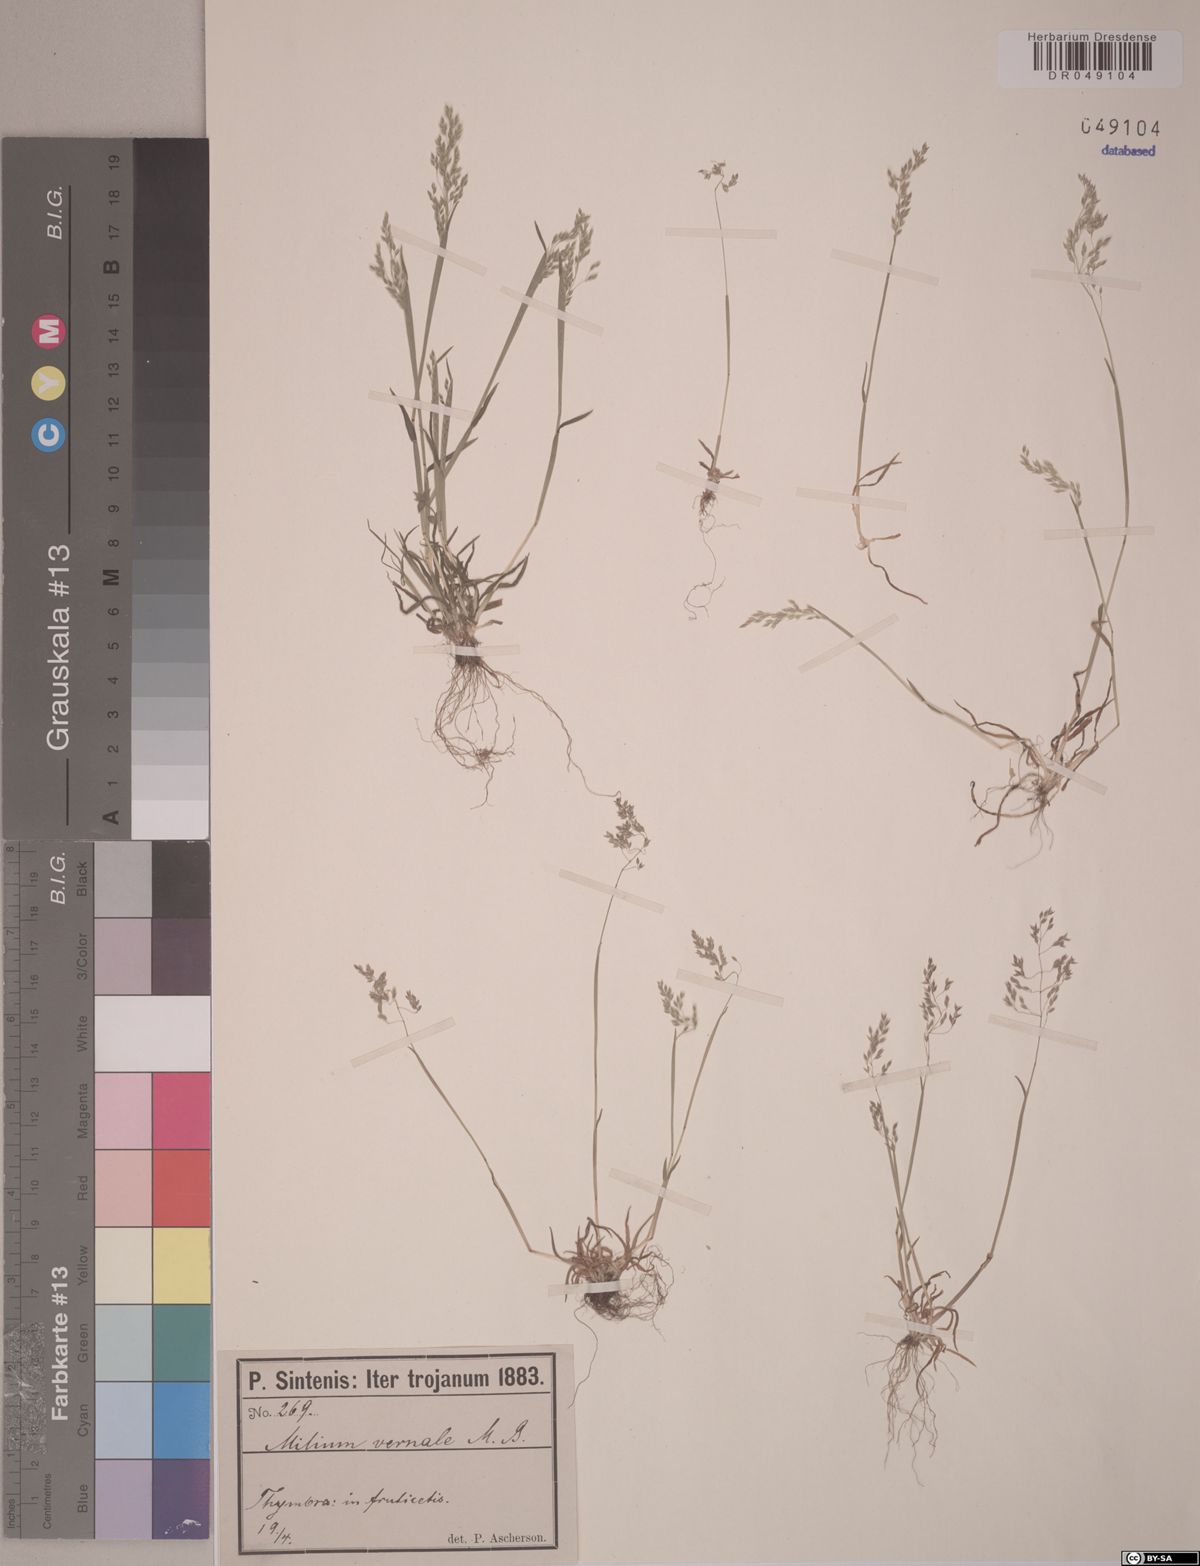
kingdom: Plantae
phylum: Tracheophyta
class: Liliopsida
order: Poales
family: Poaceae
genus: Milium
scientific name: Milium vernale
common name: Early millet
